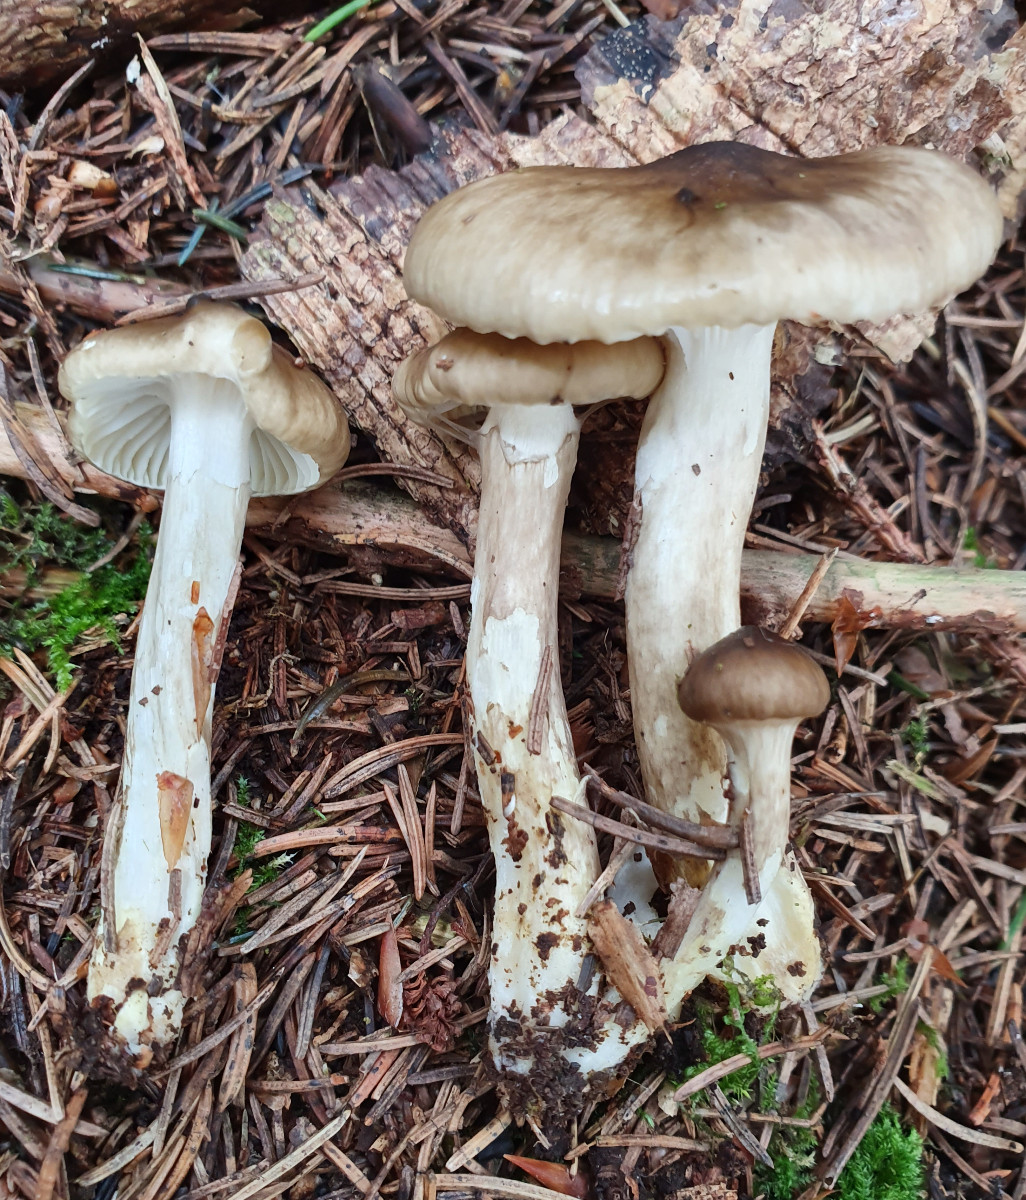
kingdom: Fungi
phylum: Basidiomycota
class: Agaricomycetes
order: Agaricales
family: Hygrophoraceae
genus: Hygrophorus
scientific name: Hygrophorus olivaceoalbus
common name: hvidbrun sneglehat
